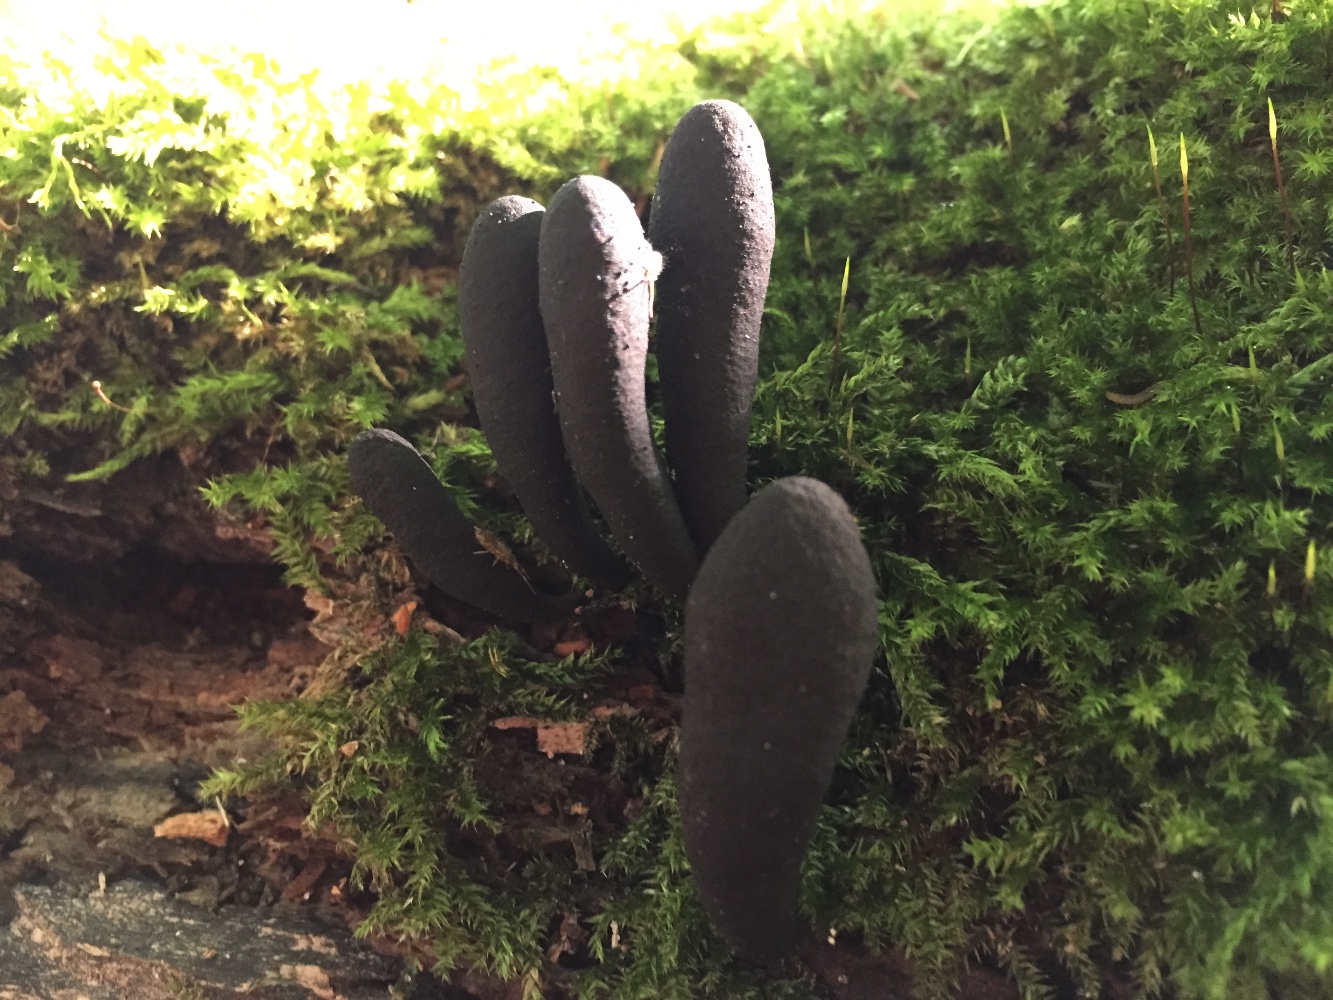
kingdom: Fungi
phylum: Ascomycota
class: Sordariomycetes
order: Xylariales
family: Xylariaceae
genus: Xylaria
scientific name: Xylaria longipes
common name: slank stødsvamp
